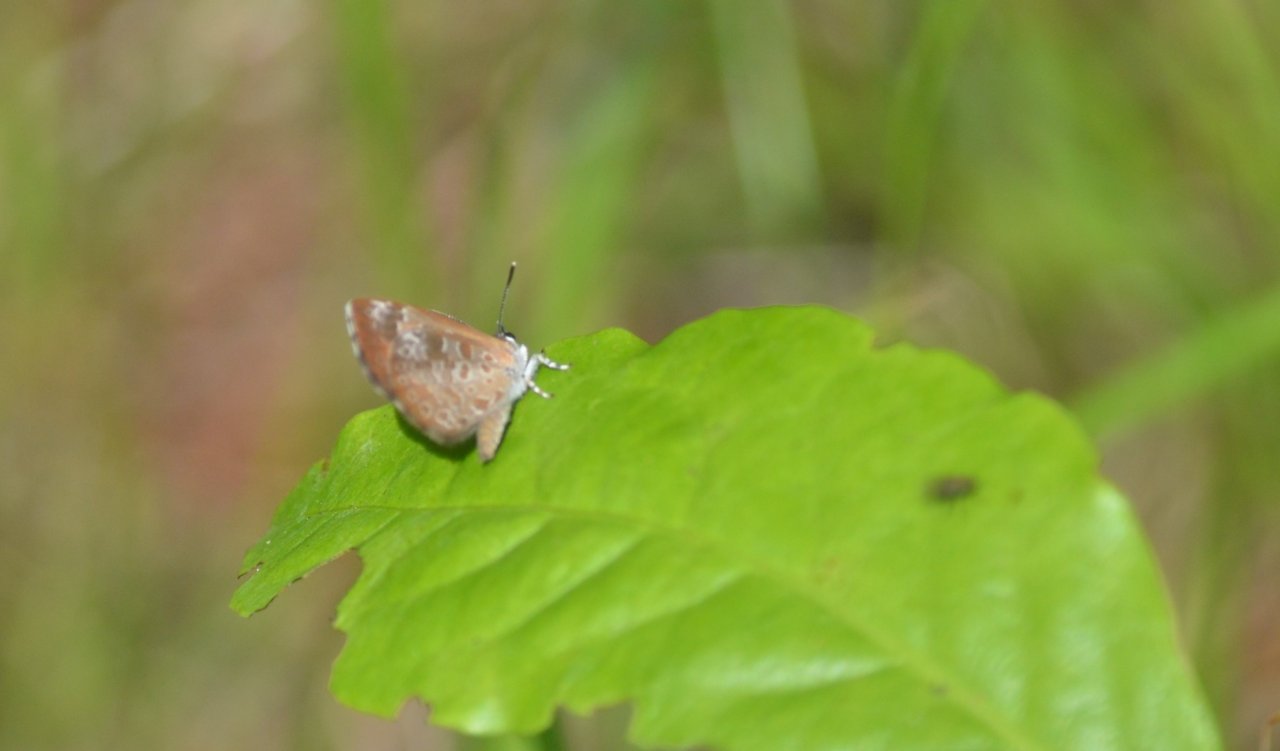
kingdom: Animalia
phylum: Arthropoda
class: Insecta
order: Lepidoptera
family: Lycaenidae
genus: Feniseca
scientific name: Feniseca tarquinius
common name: Harvester
